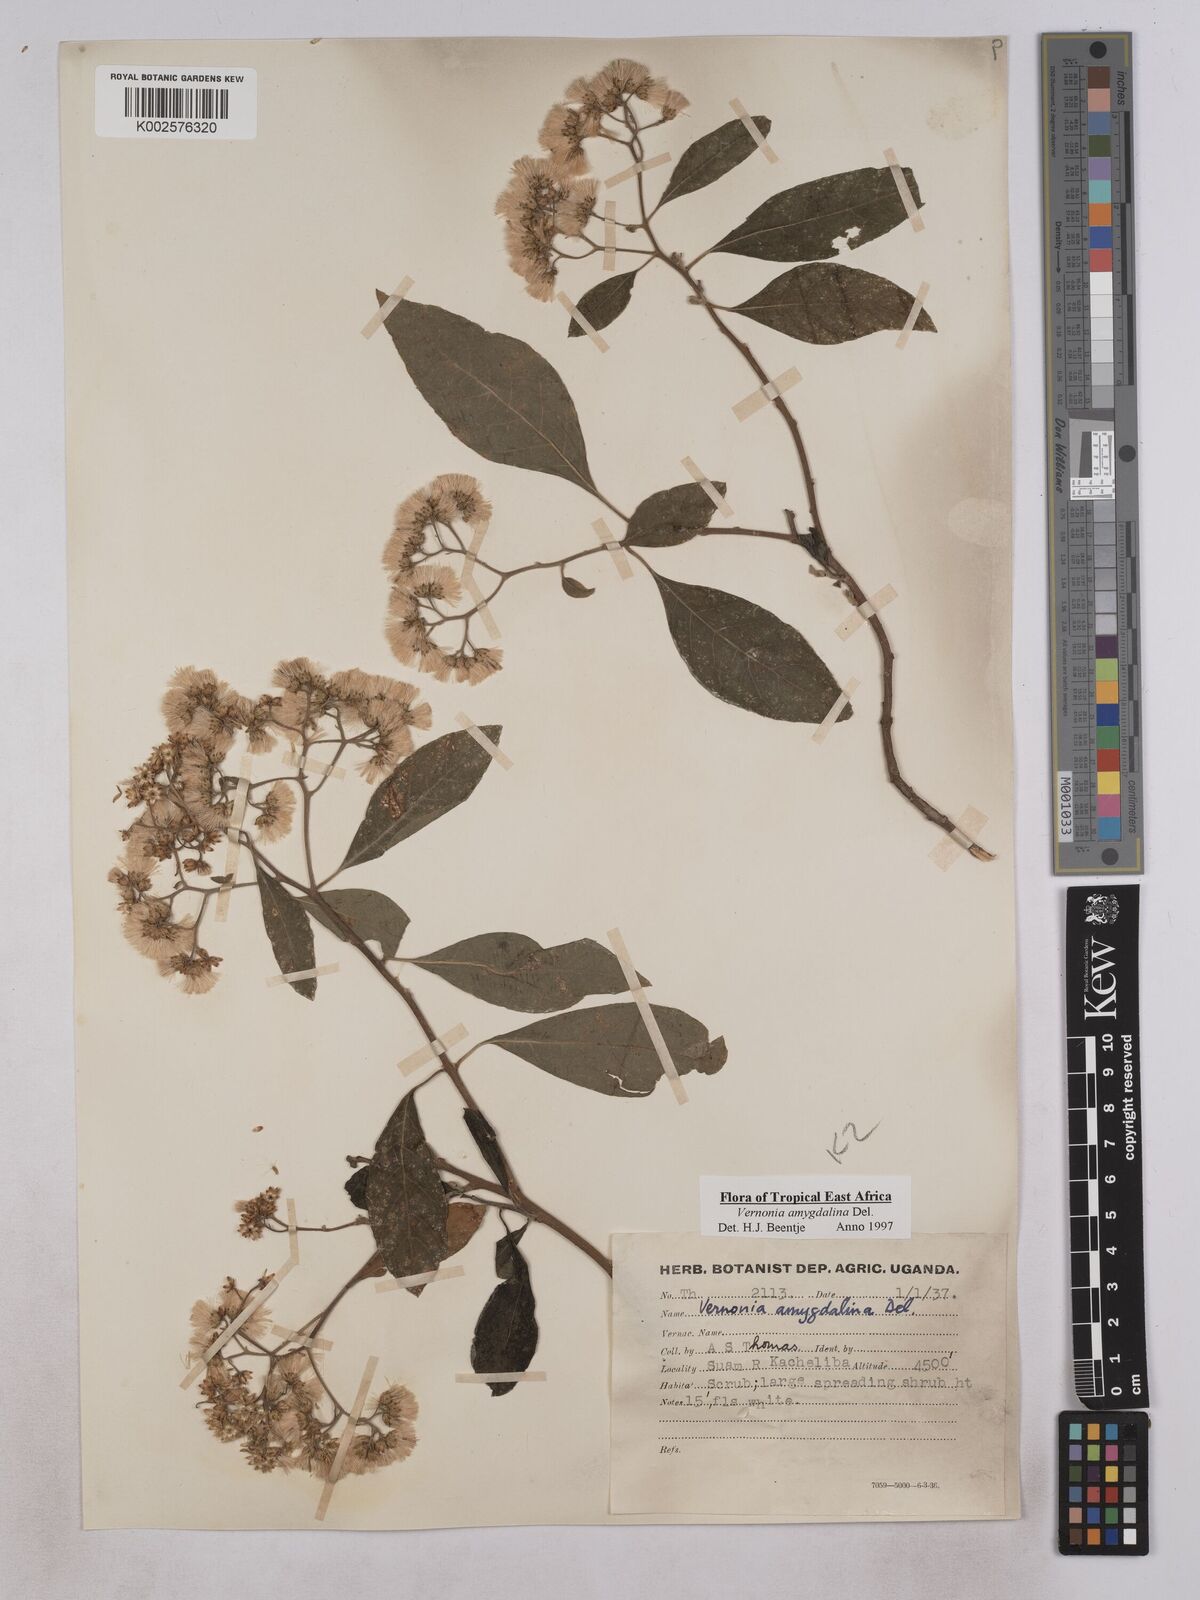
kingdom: Plantae
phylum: Tracheophyta
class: Magnoliopsida
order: Asterales
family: Asteraceae
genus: Gymnanthemum
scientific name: Gymnanthemum amygdalinum
